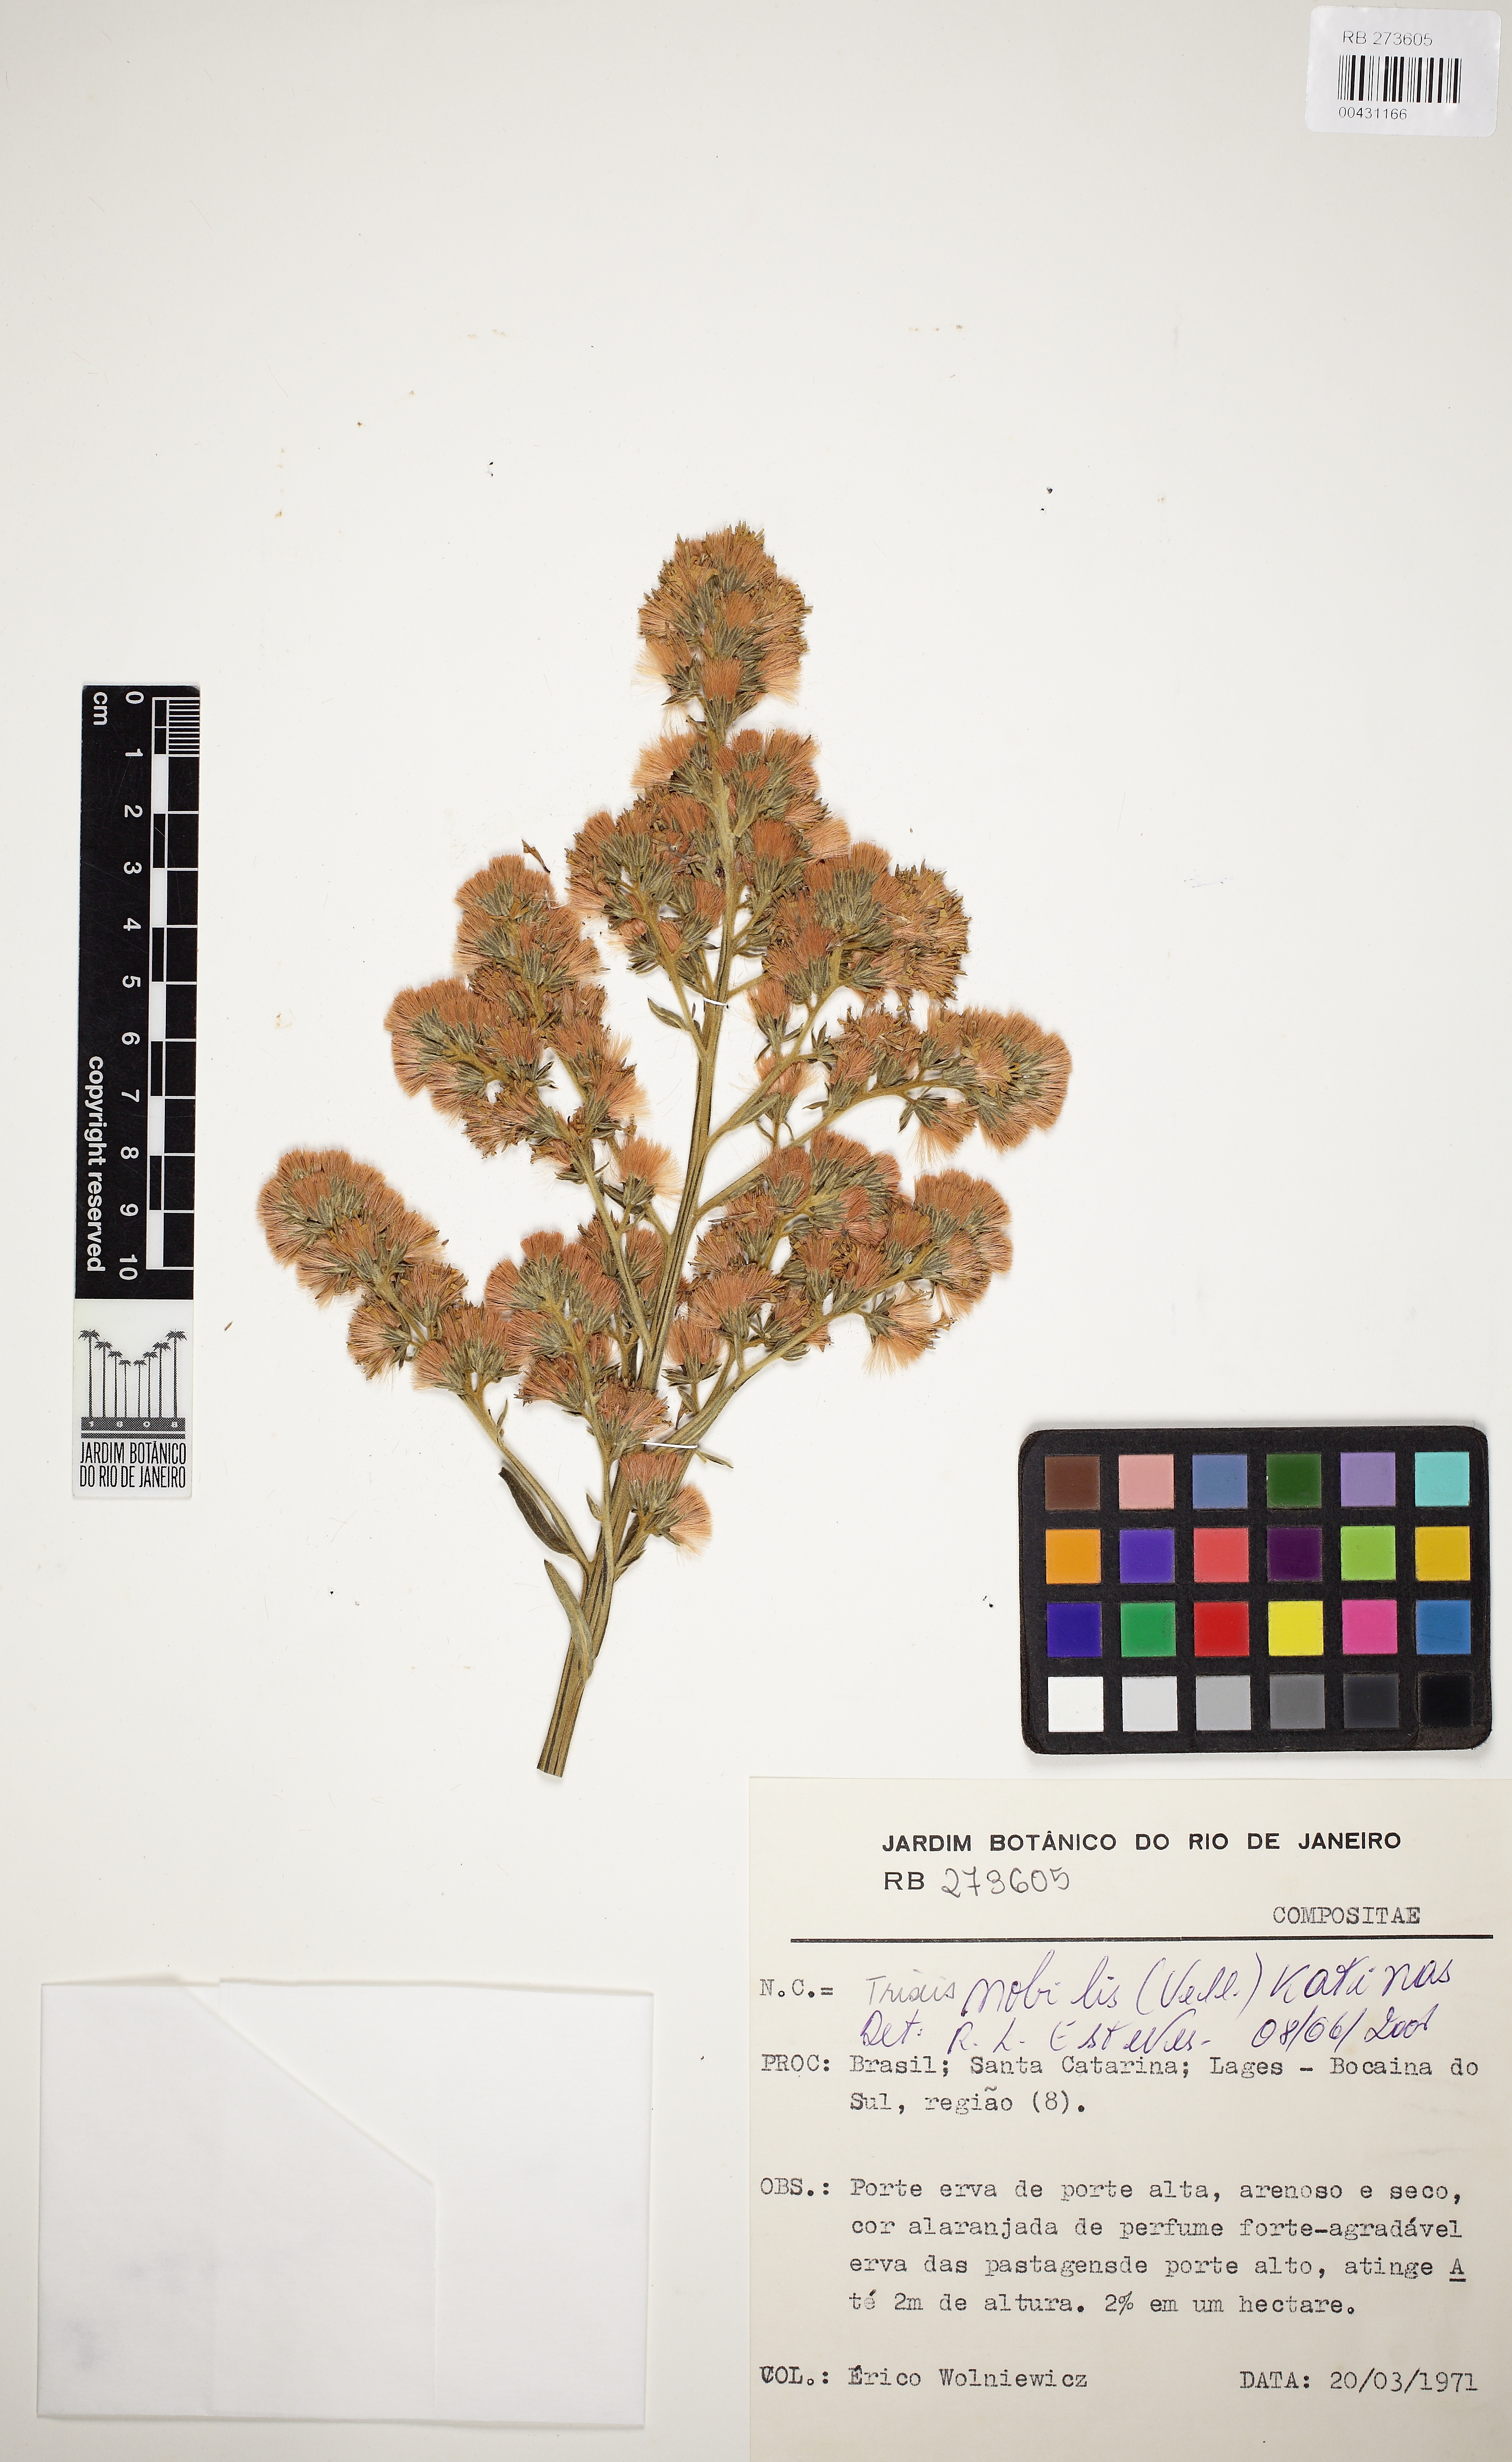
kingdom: Plantae
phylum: Tracheophyta
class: Magnoliopsida
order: Asterales
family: Asteraceae
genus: Trixis
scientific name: Trixis nobilis
